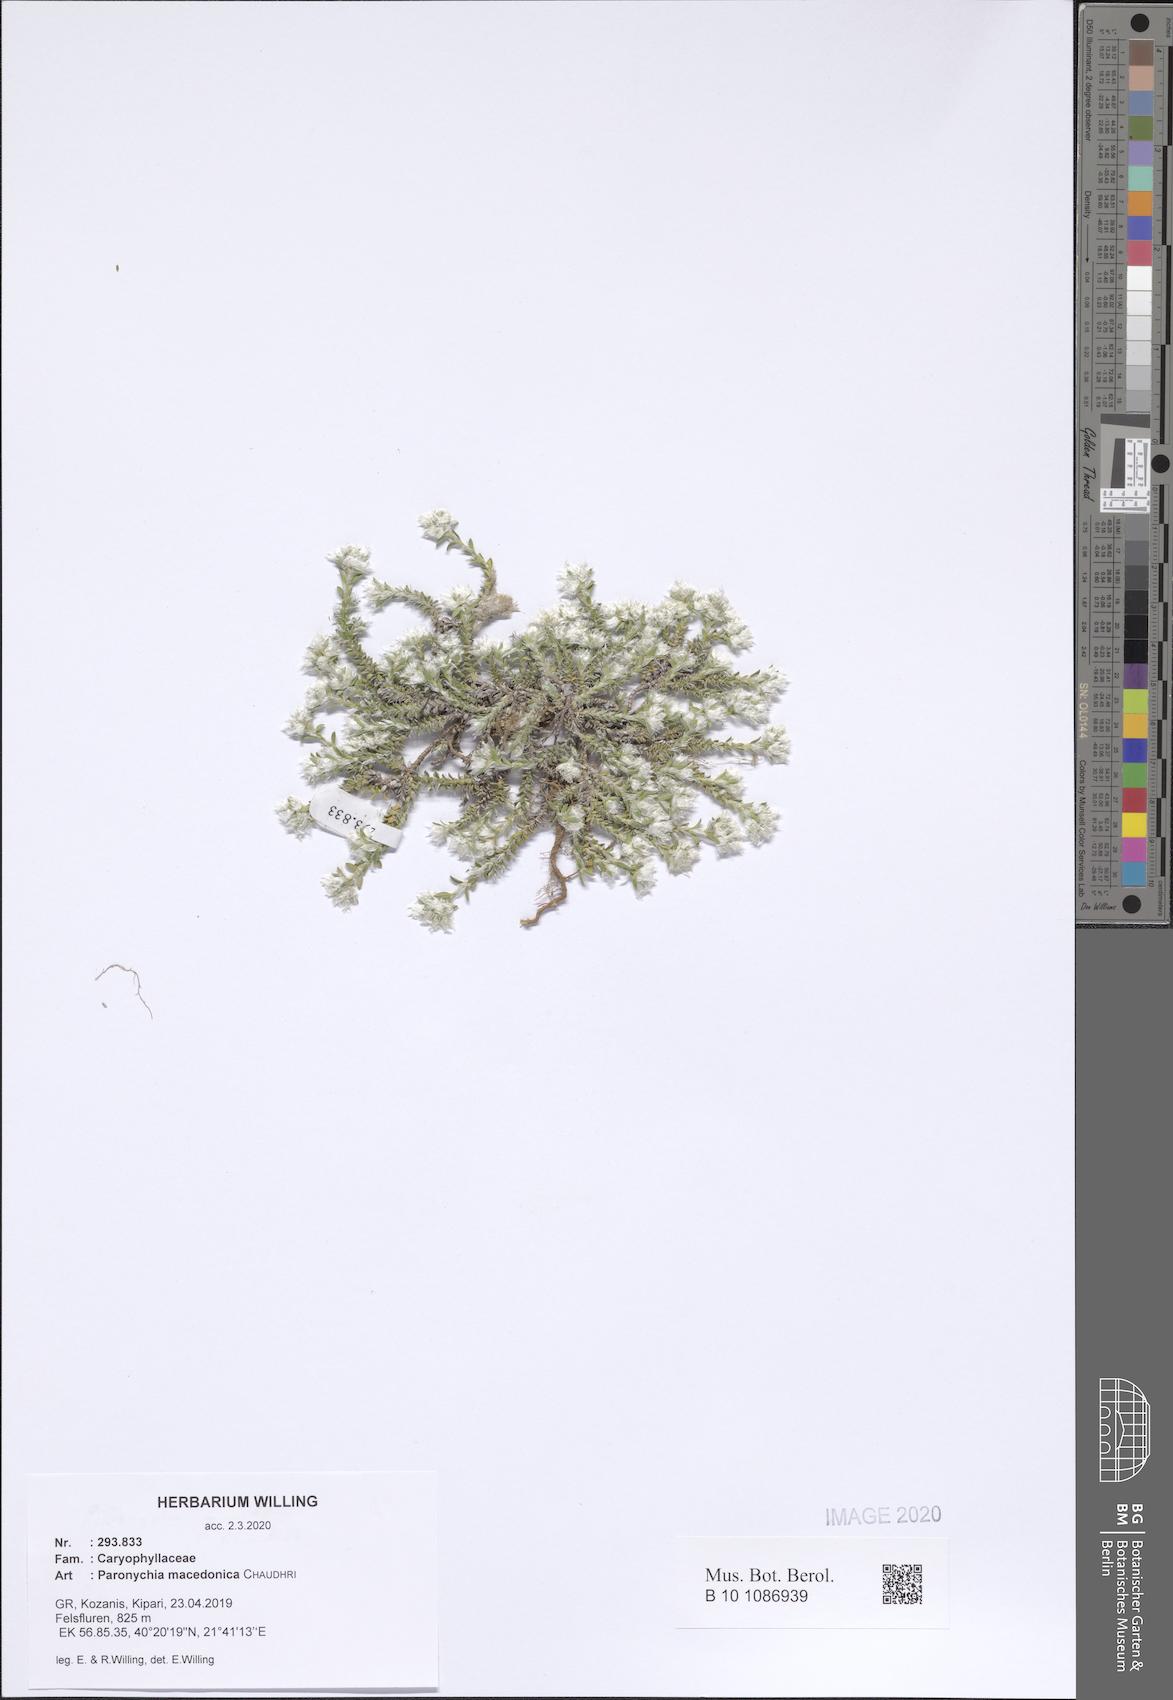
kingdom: Plantae
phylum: Tracheophyta
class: Magnoliopsida
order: Caryophyllales
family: Caryophyllaceae
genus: Paronychia
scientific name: Paronychia macedonica
